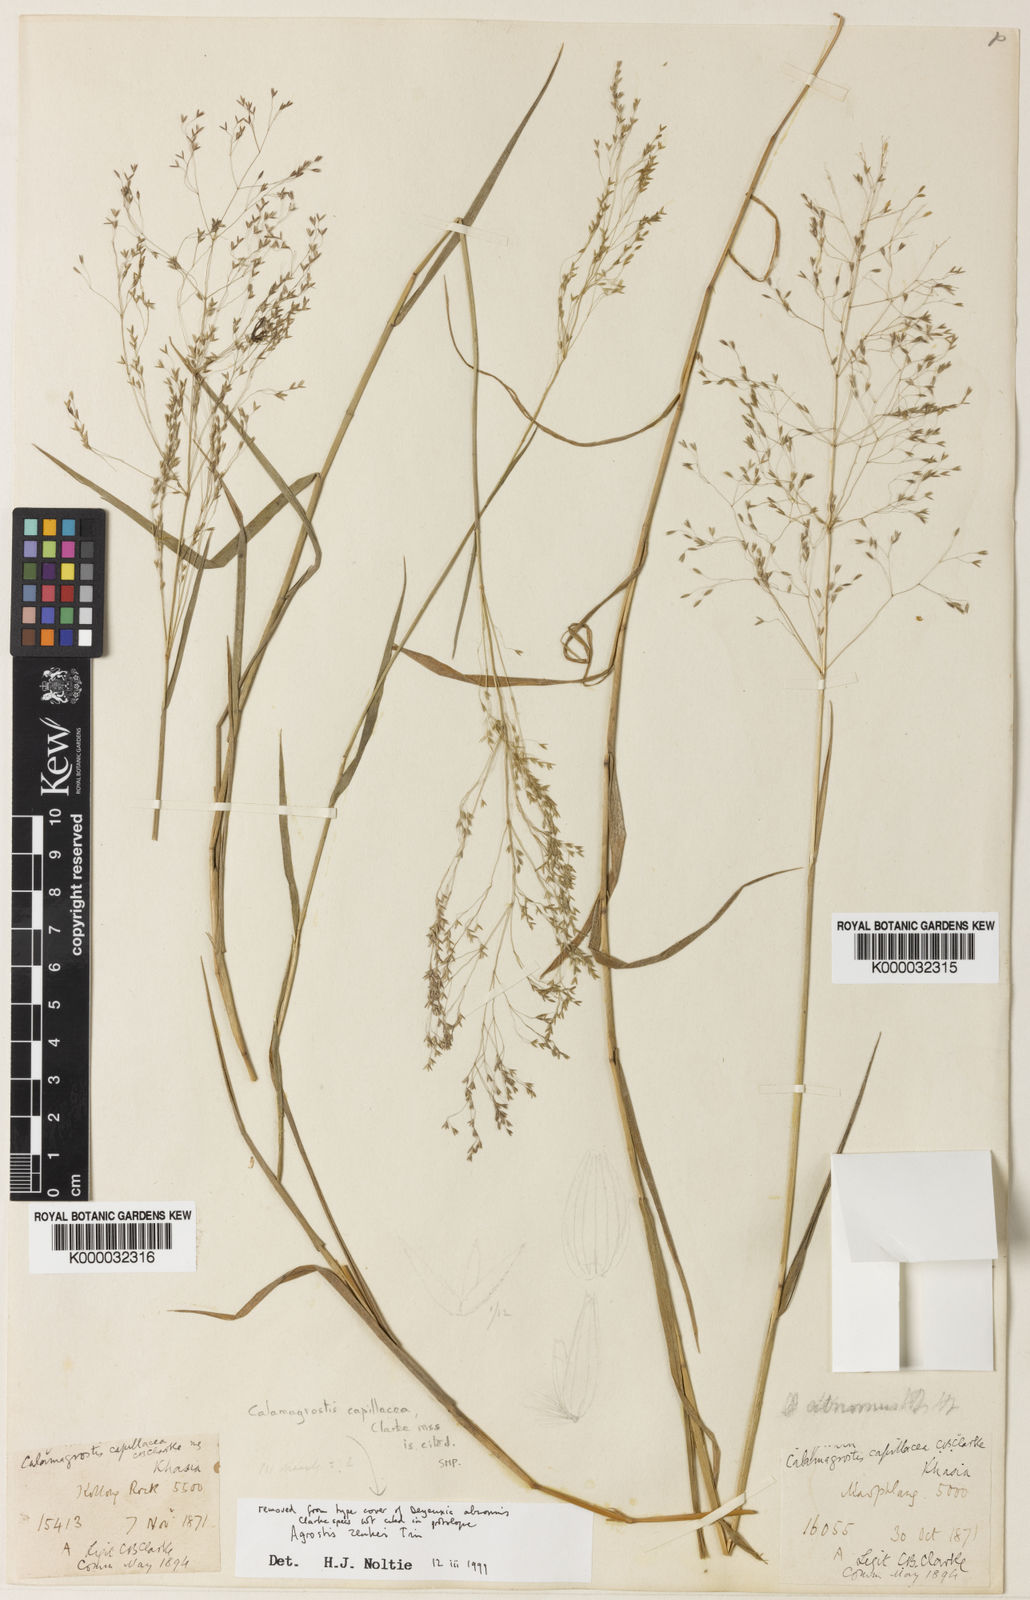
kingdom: Plantae
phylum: Tracheophyta
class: Liliopsida
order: Poales
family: Poaceae
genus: Calamagrostis
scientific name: Calamagrostis abnormis
